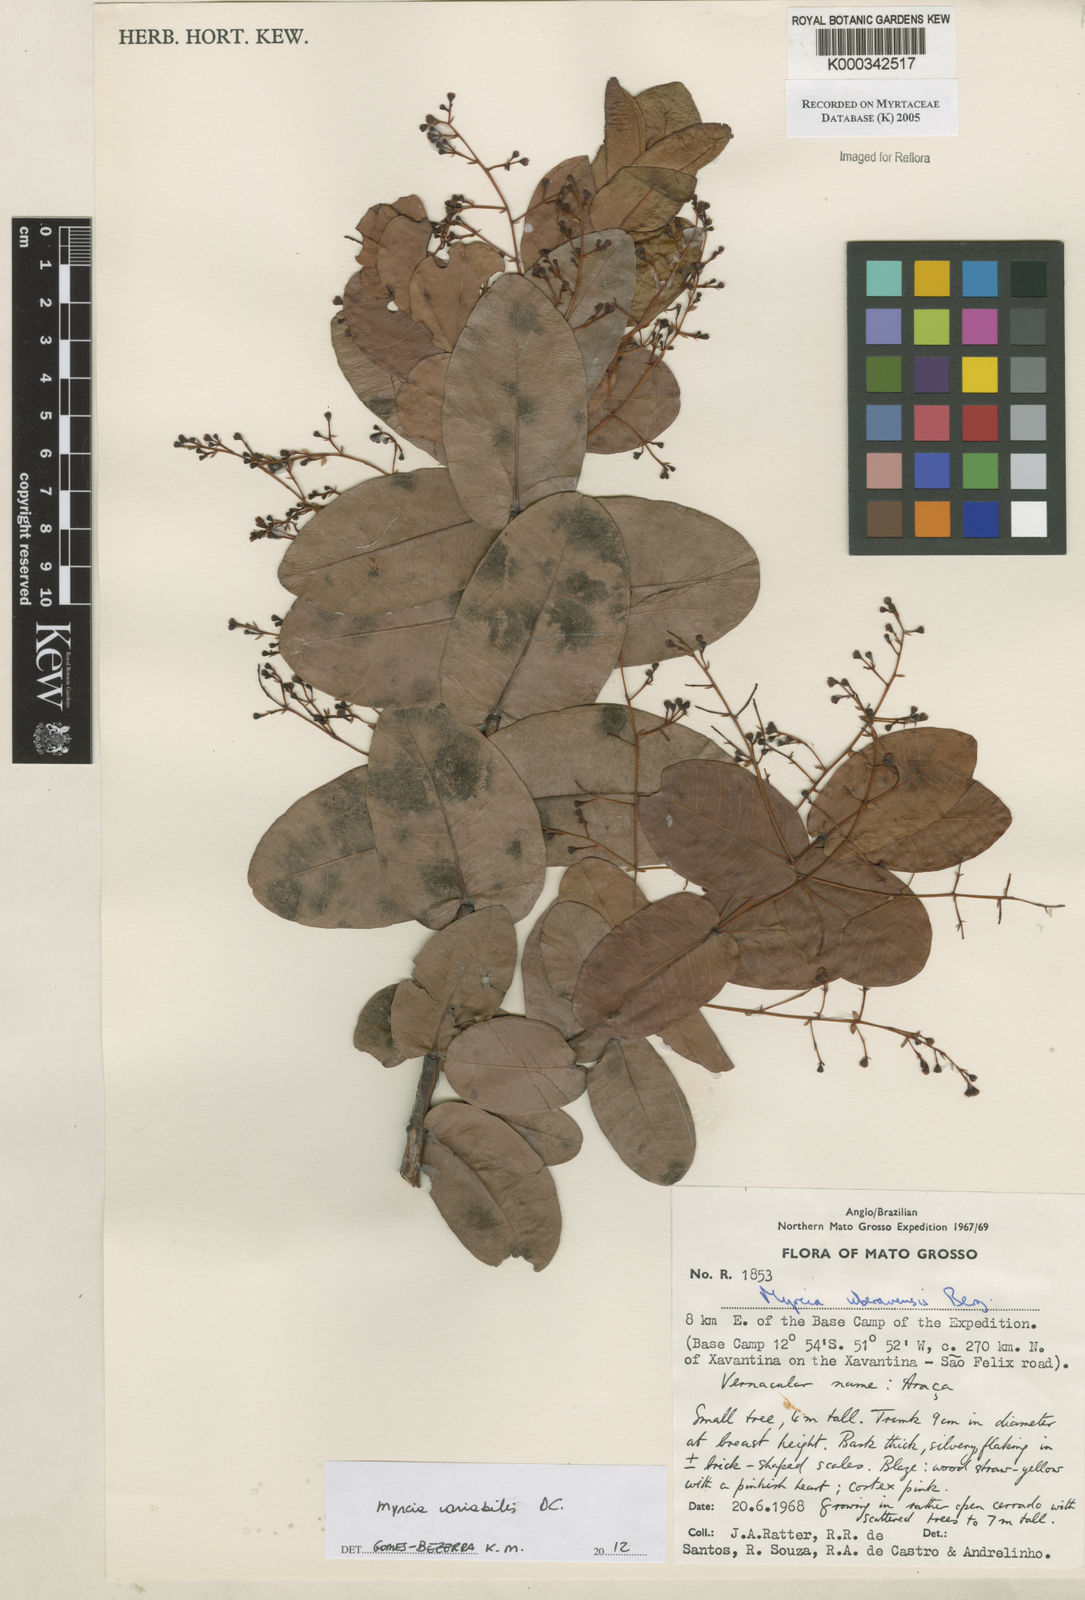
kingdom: Plantae
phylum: Tracheophyta
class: Magnoliopsida
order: Myrtales
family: Myrtaceae
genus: Myrcia
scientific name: Myrcia uberavensis
